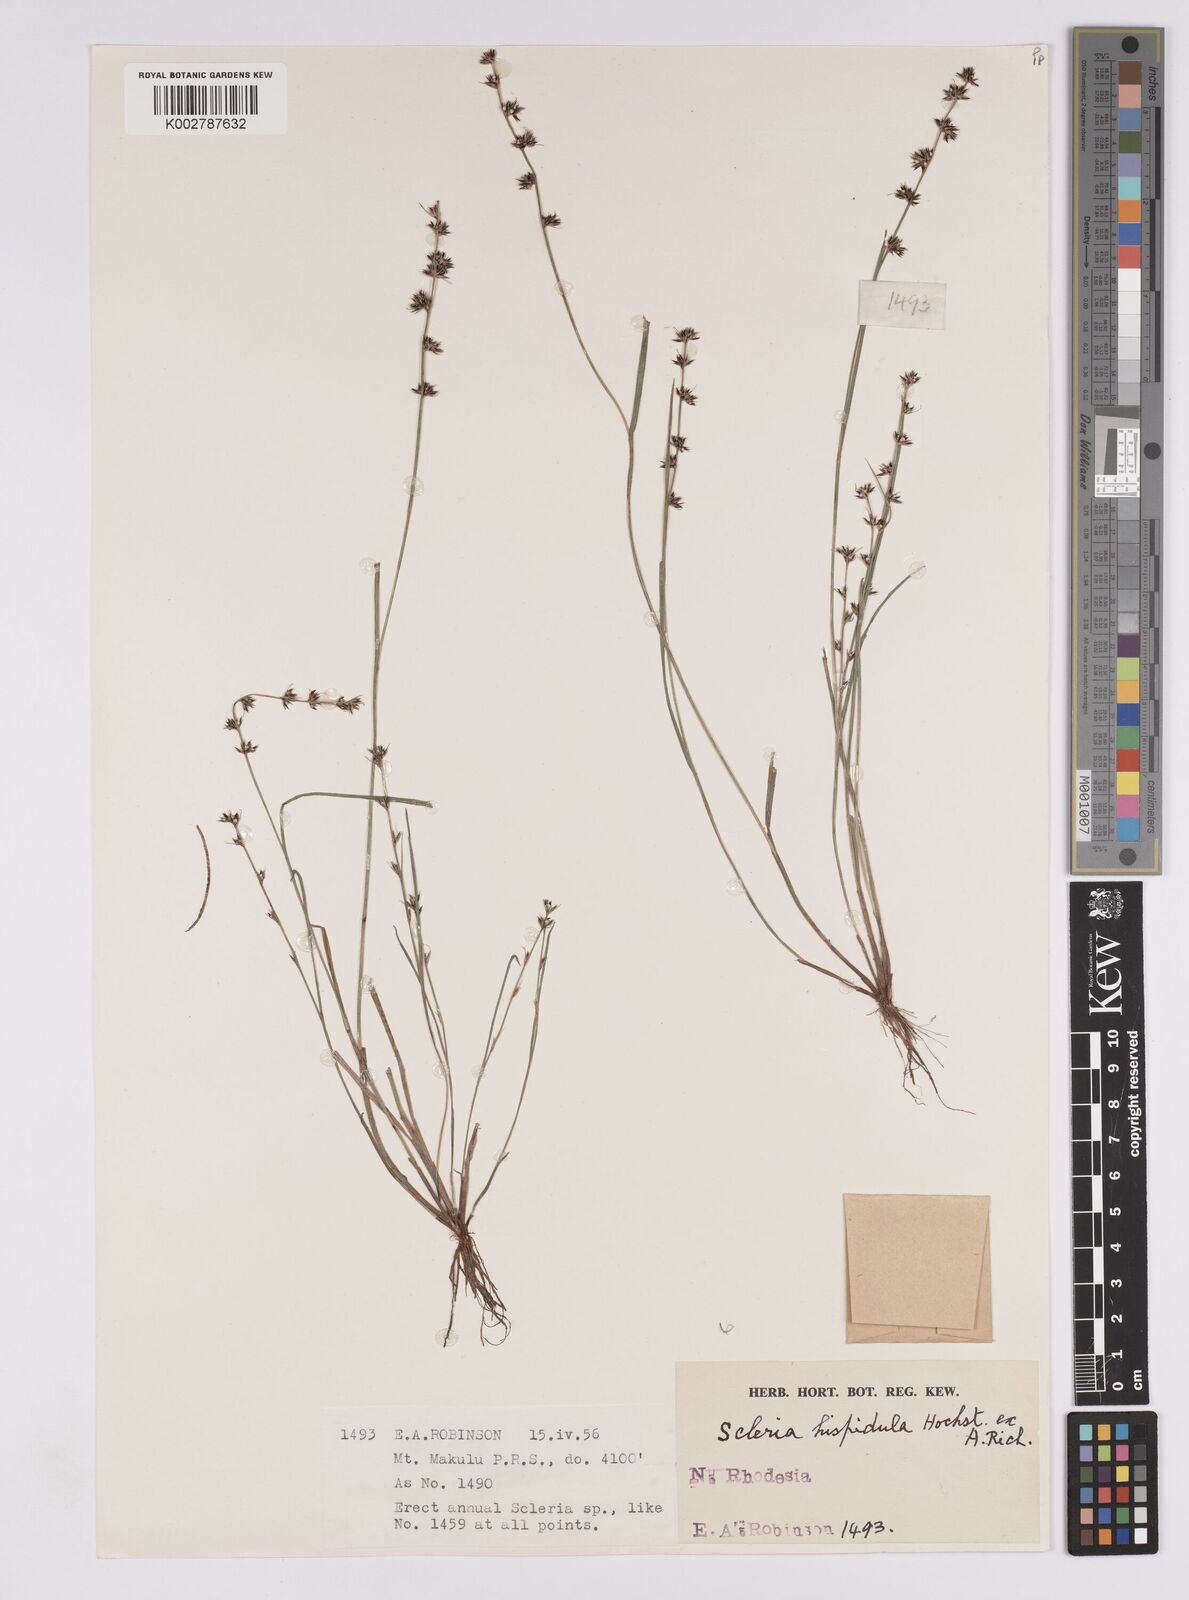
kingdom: Plantae
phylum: Tracheophyta
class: Liliopsida
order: Poales
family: Cyperaceae
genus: Scleria
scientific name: Scleria hispidula
